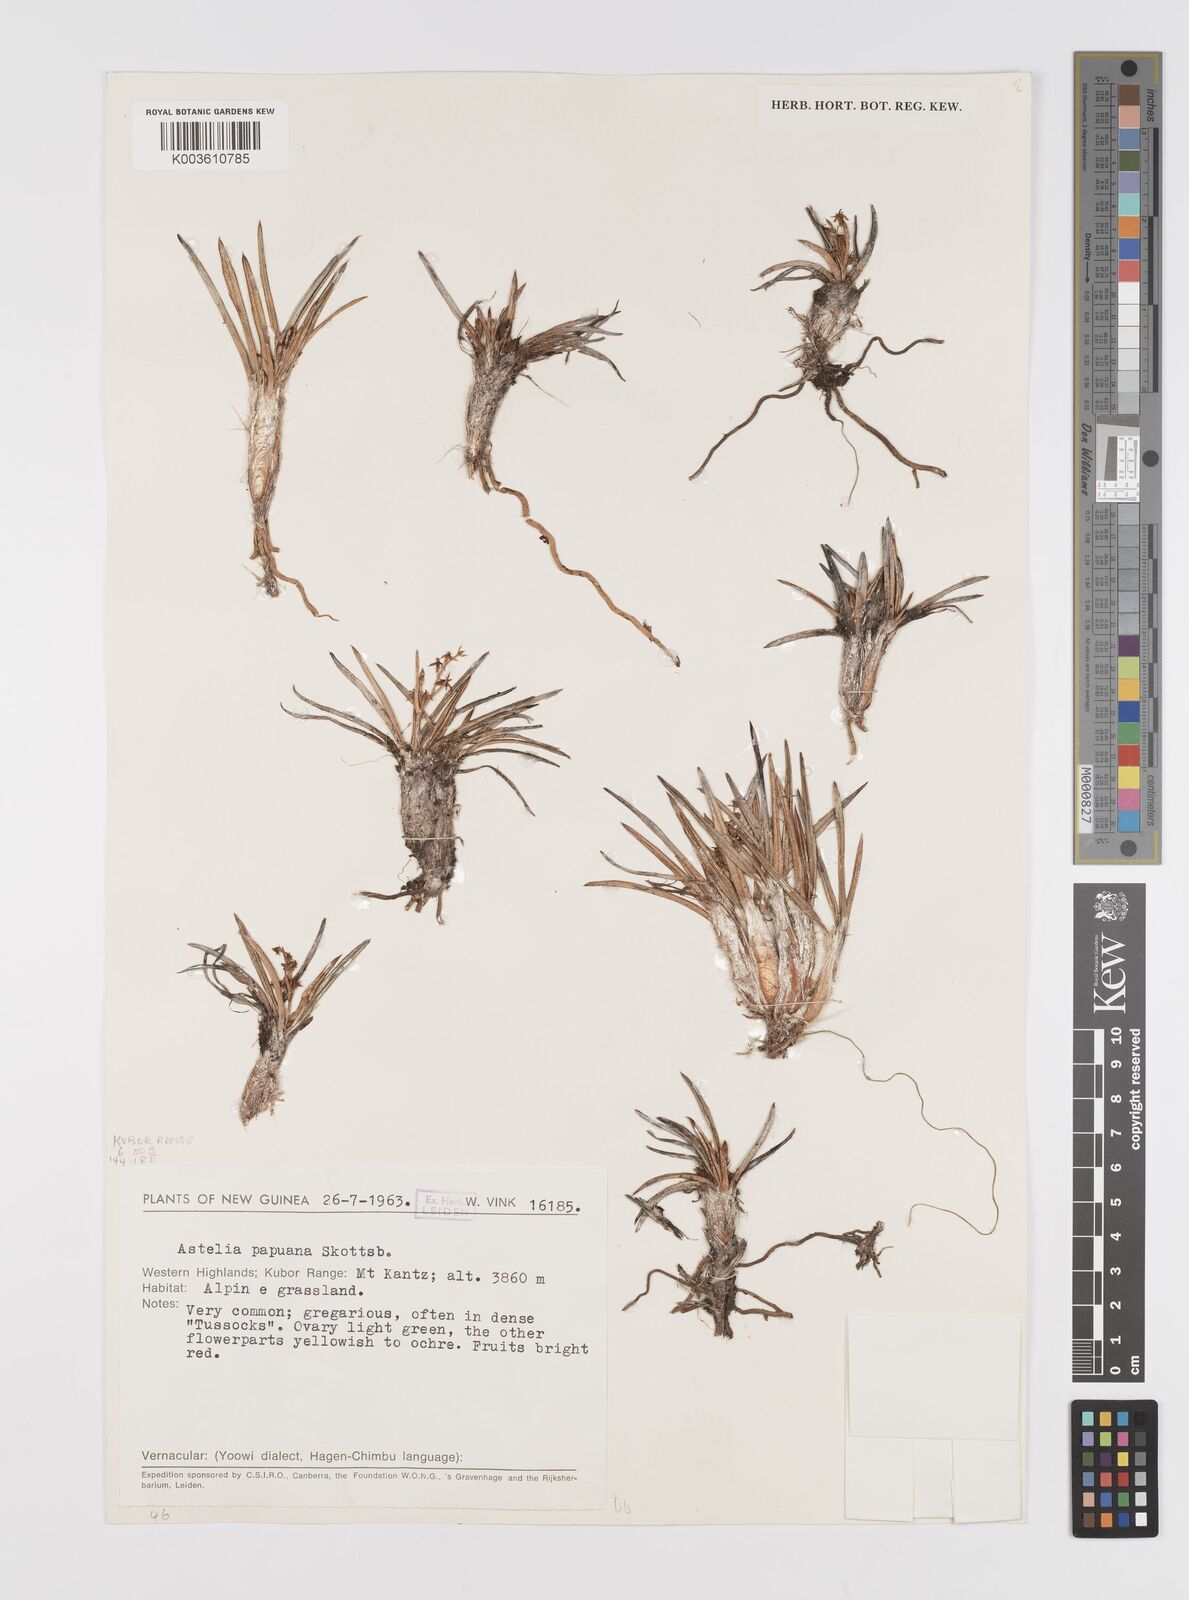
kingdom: Plantae
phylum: Tracheophyta
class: Liliopsida
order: Asparagales
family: Asteliaceae
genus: Astelia
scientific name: Astelia papuana
